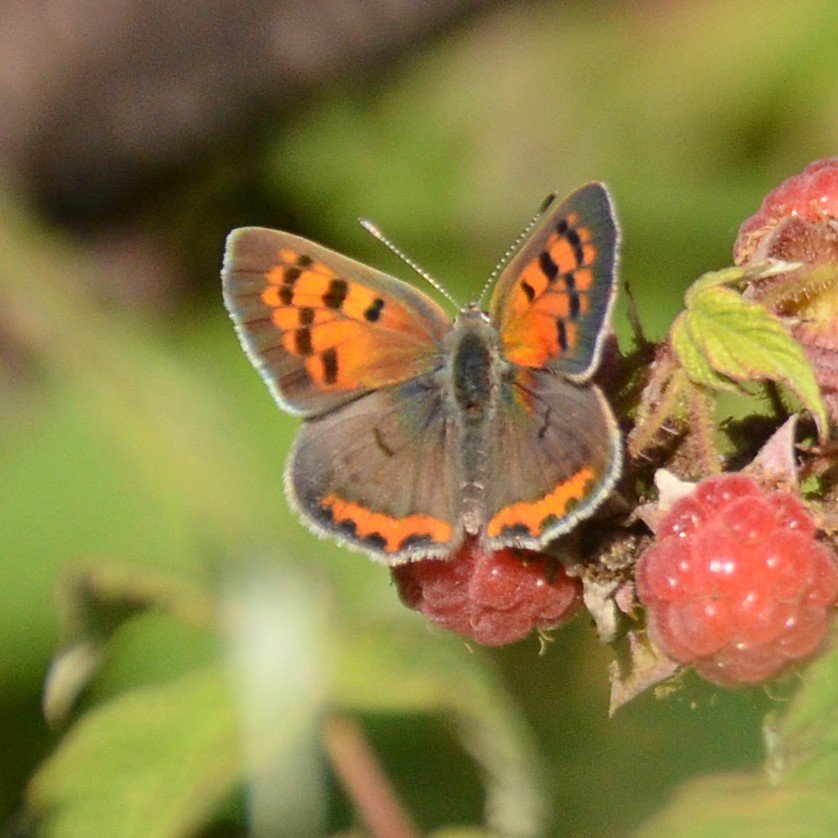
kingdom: Animalia
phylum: Arthropoda
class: Insecta
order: Lepidoptera
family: Lycaenidae
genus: Lycaena
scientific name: Lycaena phlaeas
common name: American Copper
